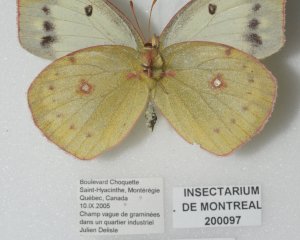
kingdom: Animalia
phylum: Arthropoda
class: Insecta
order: Lepidoptera
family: Pieridae
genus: Colias
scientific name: Colias philodice
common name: Clouded Sulphur
